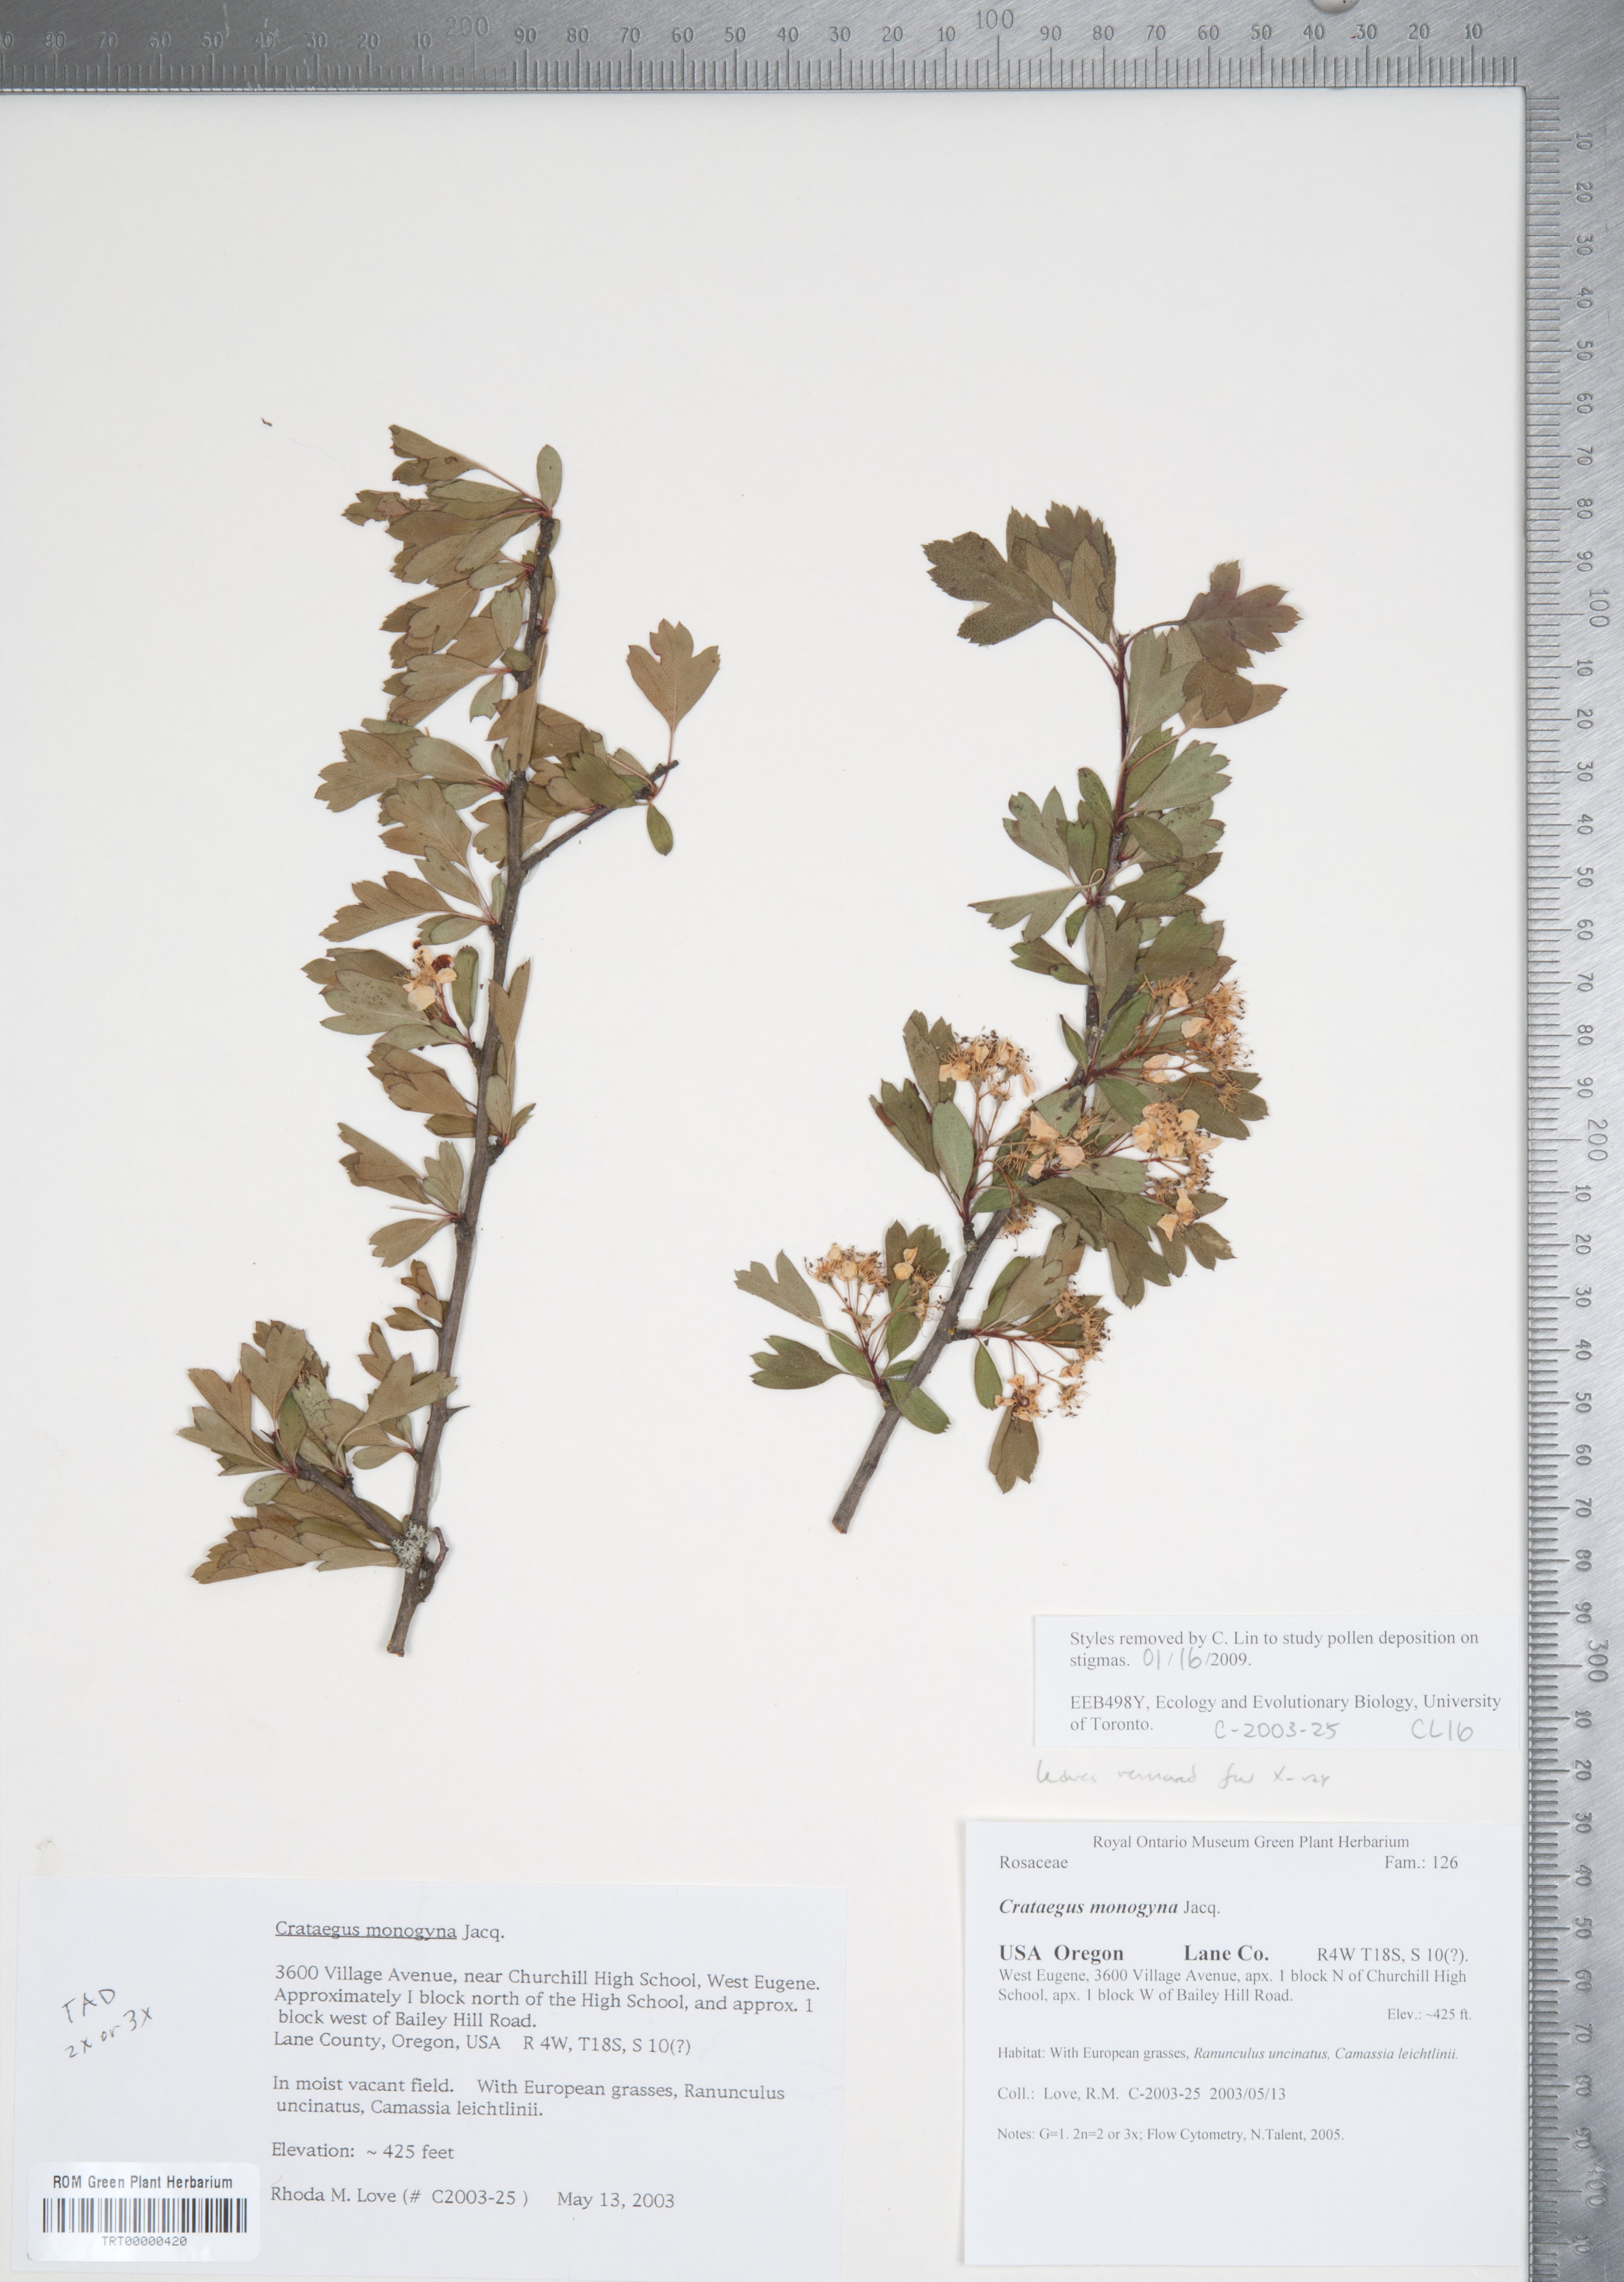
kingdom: Plantae
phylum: Tracheophyta
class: Magnoliopsida
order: Rosales
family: Rosaceae
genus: Crataegus
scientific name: Crataegus monogyna
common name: Hawthorn
